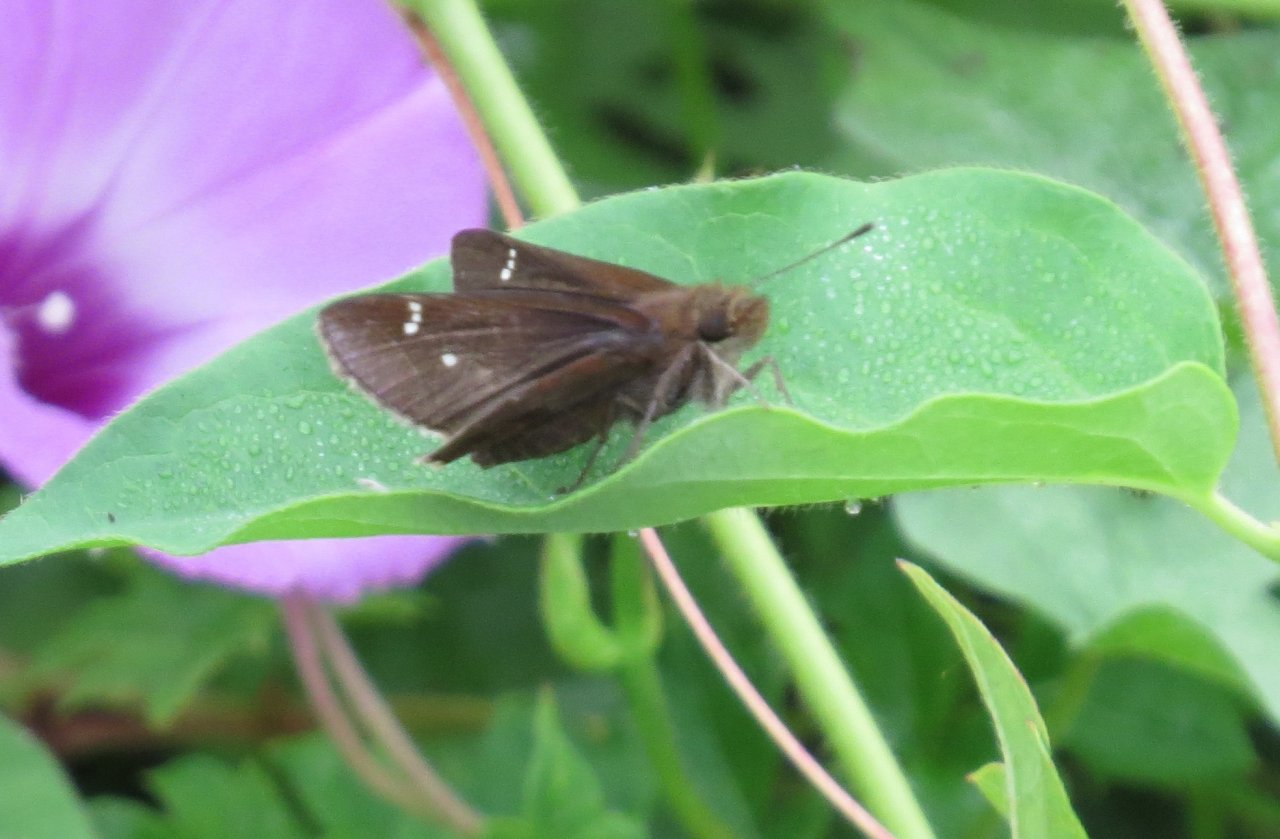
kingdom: Animalia
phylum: Arthropoda
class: Insecta
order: Lepidoptera
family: Hesperiidae
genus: Lerema
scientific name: Lerema accius
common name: Clouded Skipper
